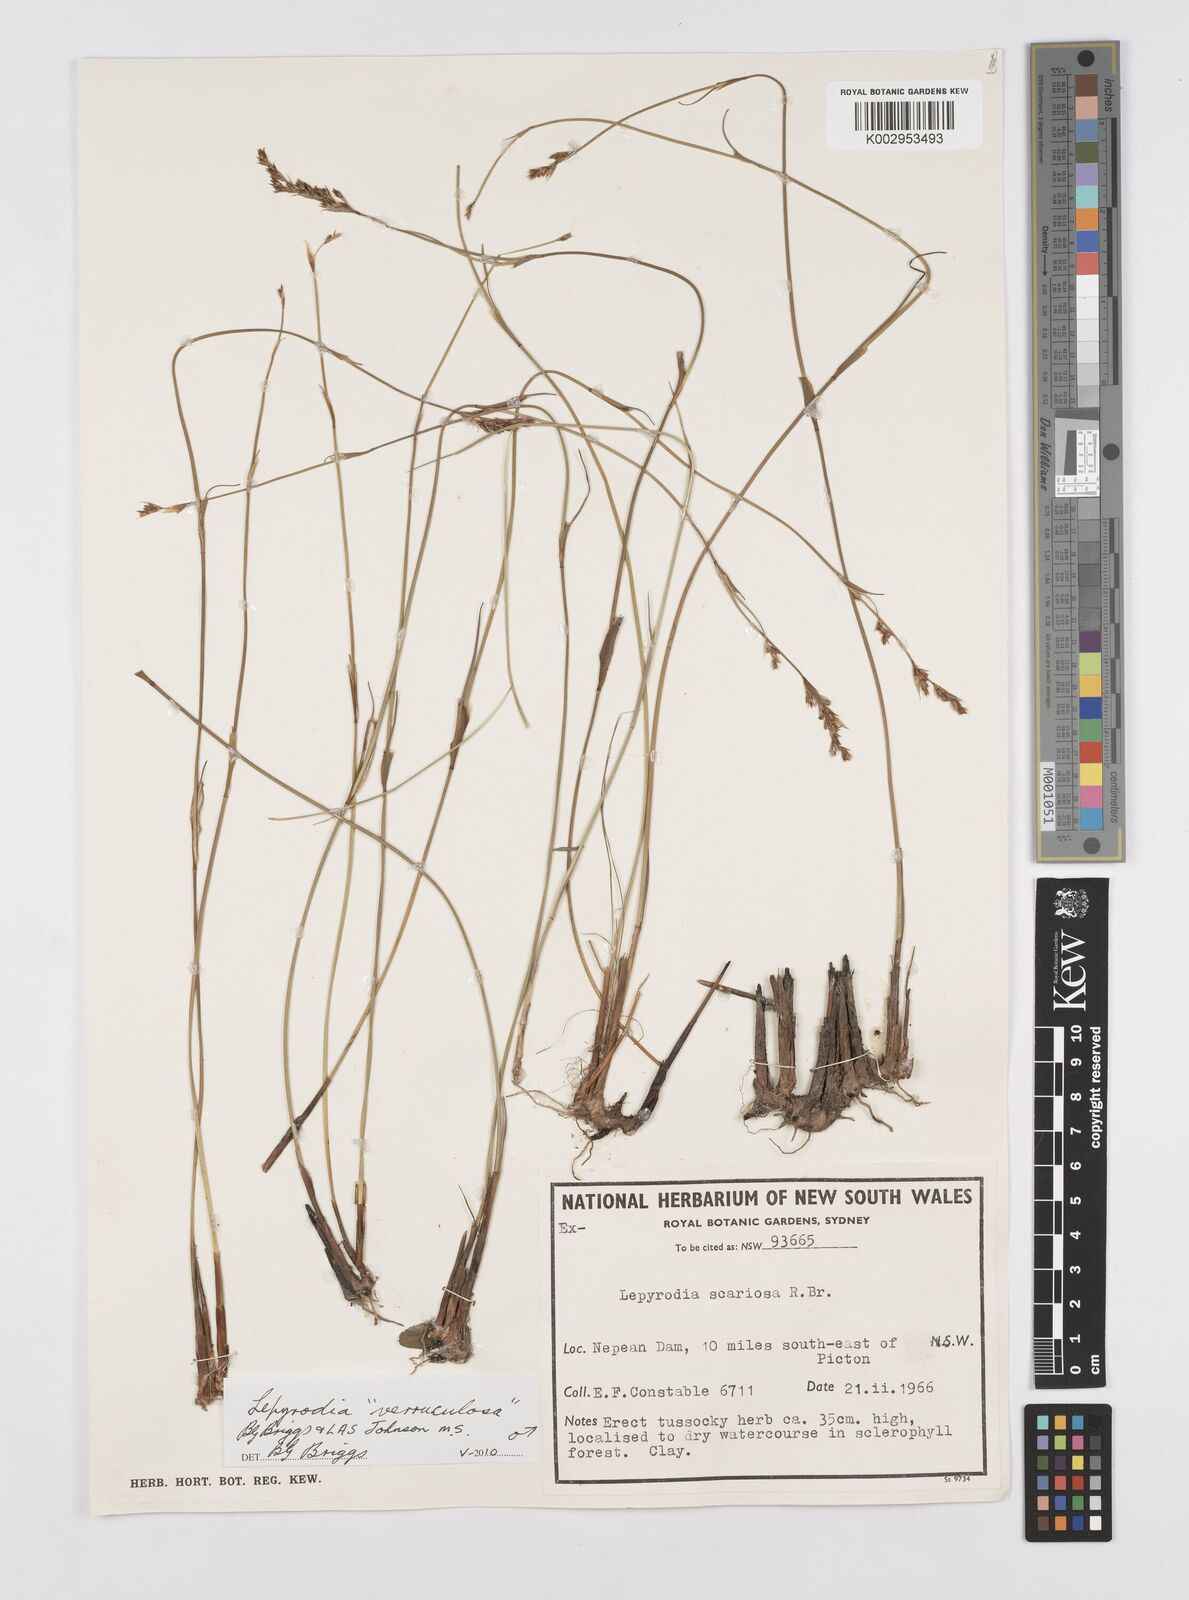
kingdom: Plantae
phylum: Tracheophyta
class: Liliopsida
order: Poales
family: Restionaceae
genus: Lepyrodia
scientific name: Lepyrodia verruculosa
